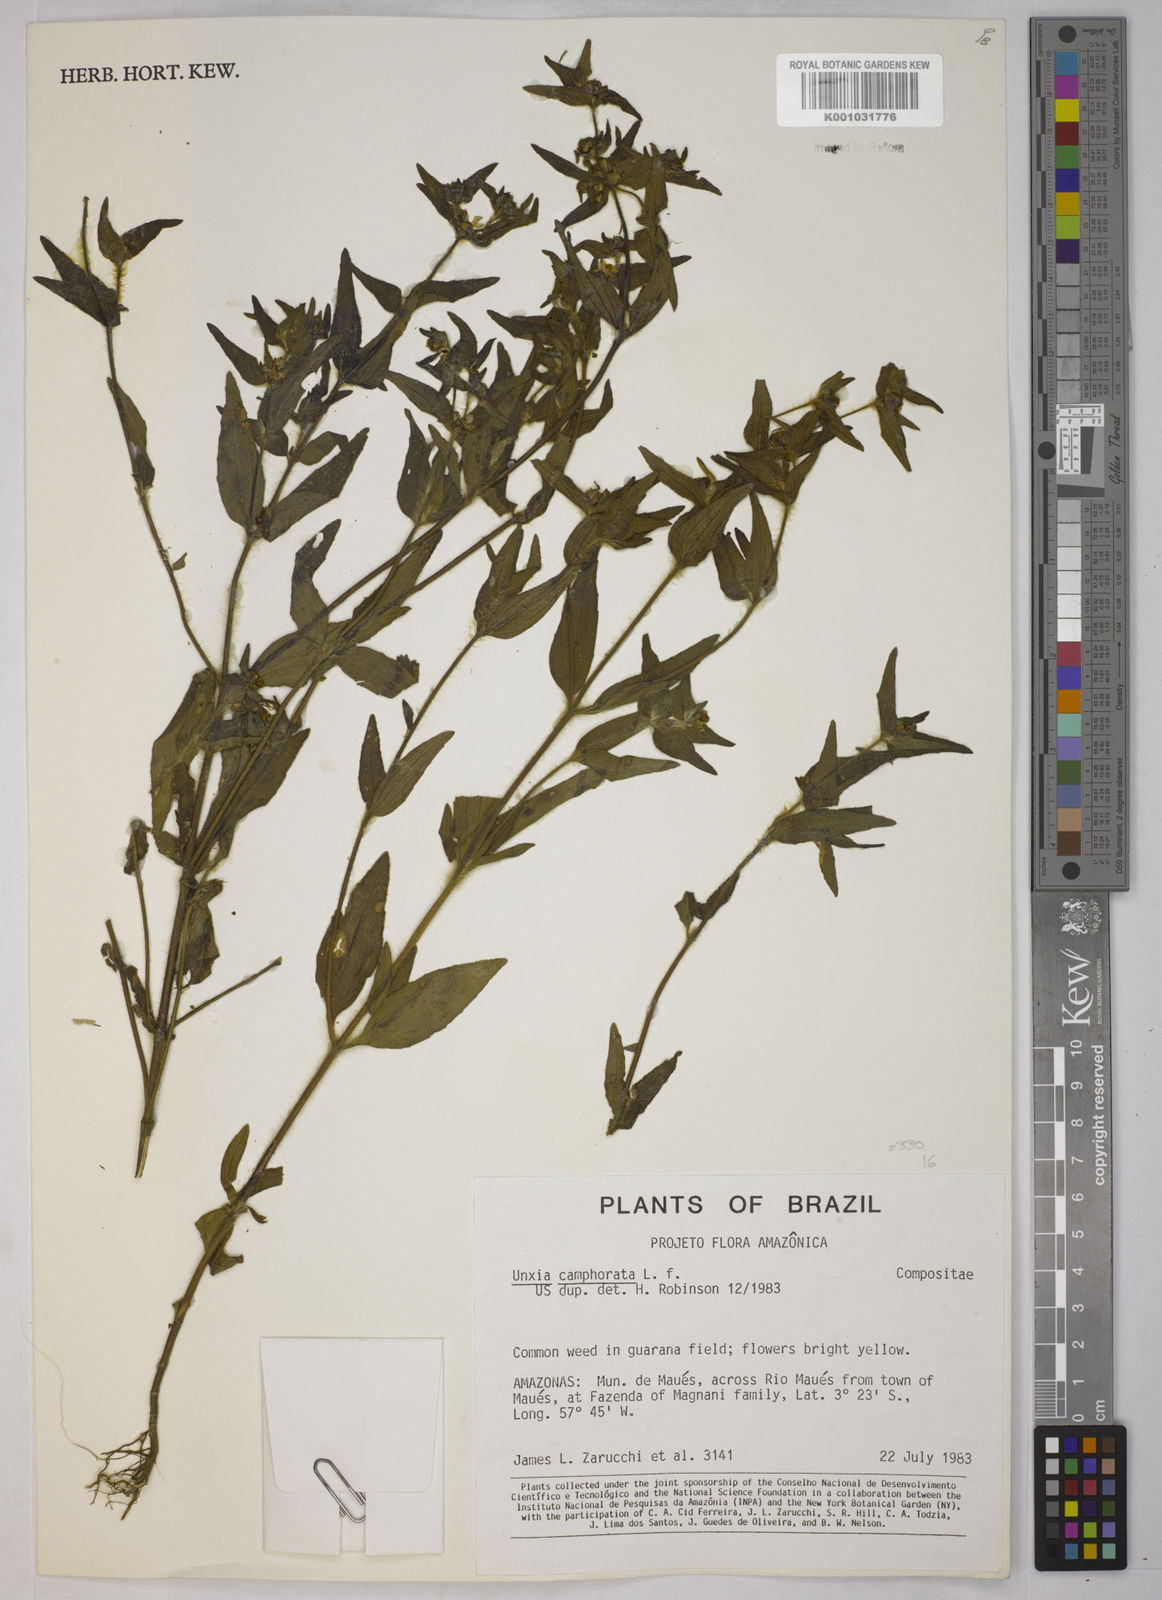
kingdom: Plantae
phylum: Tracheophyta
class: Magnoliopsida
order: Asterales
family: Asteraceae
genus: Unxia
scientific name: Unxia camphorata
